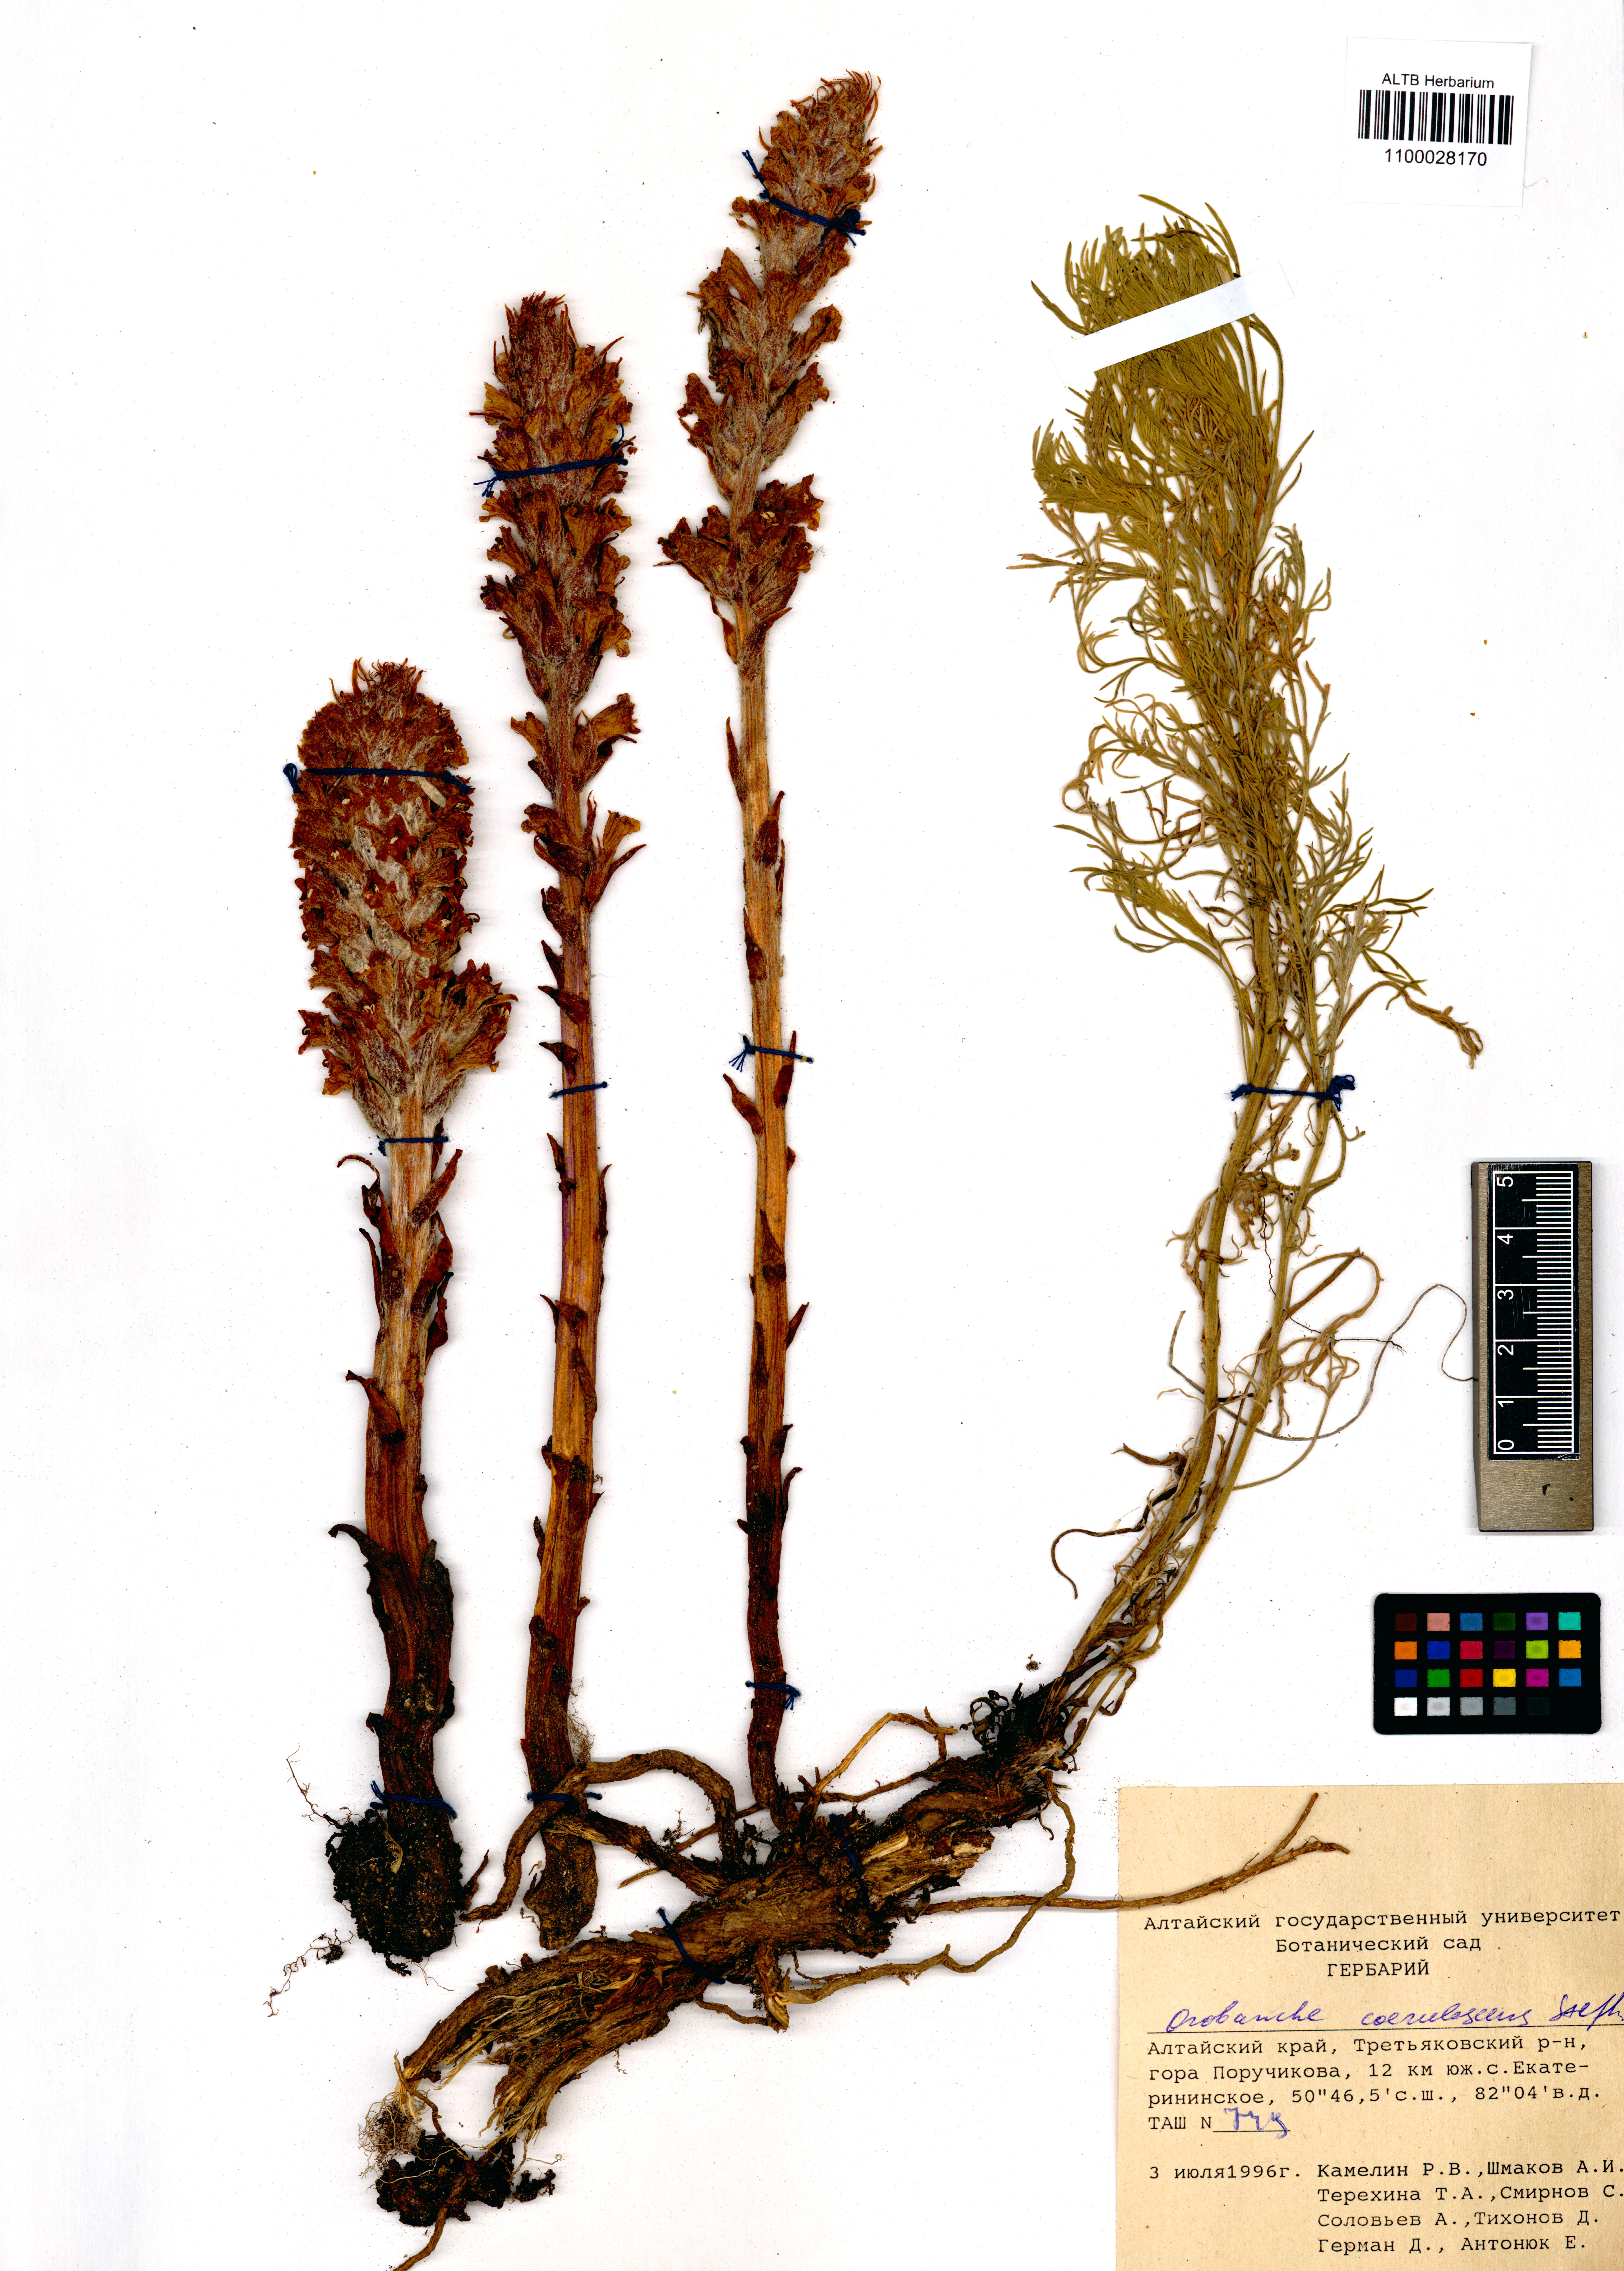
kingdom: Plantae
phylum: Tracheophyta
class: Magnoliopsida
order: Lamiales
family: Orobanchaceae
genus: Orobanche
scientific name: Orobanche coerulescens
